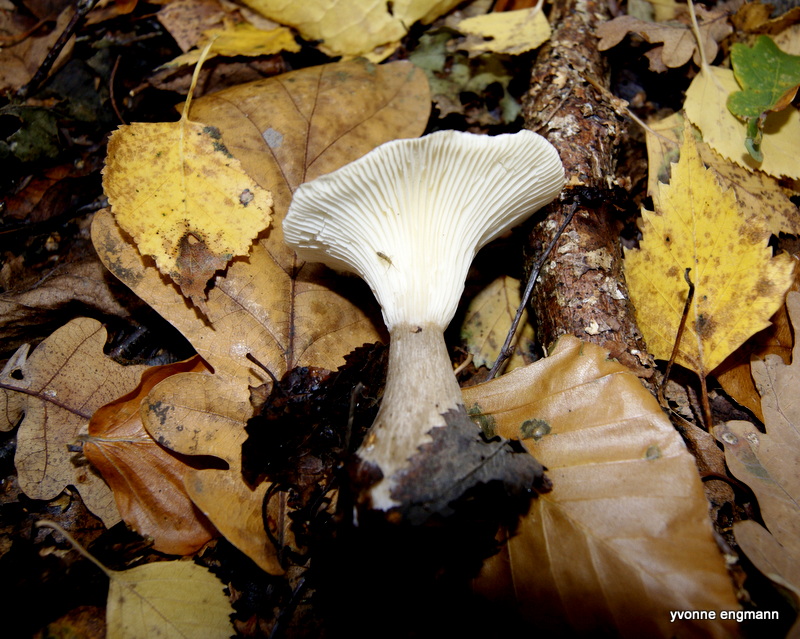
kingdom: Fungi
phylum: Basidiomycota
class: Agaricomycetes
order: Agaricales
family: Hygrophoraceae
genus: Ampulloclitocybe
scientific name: Ampulloclitocybe clavipes
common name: køllefod
